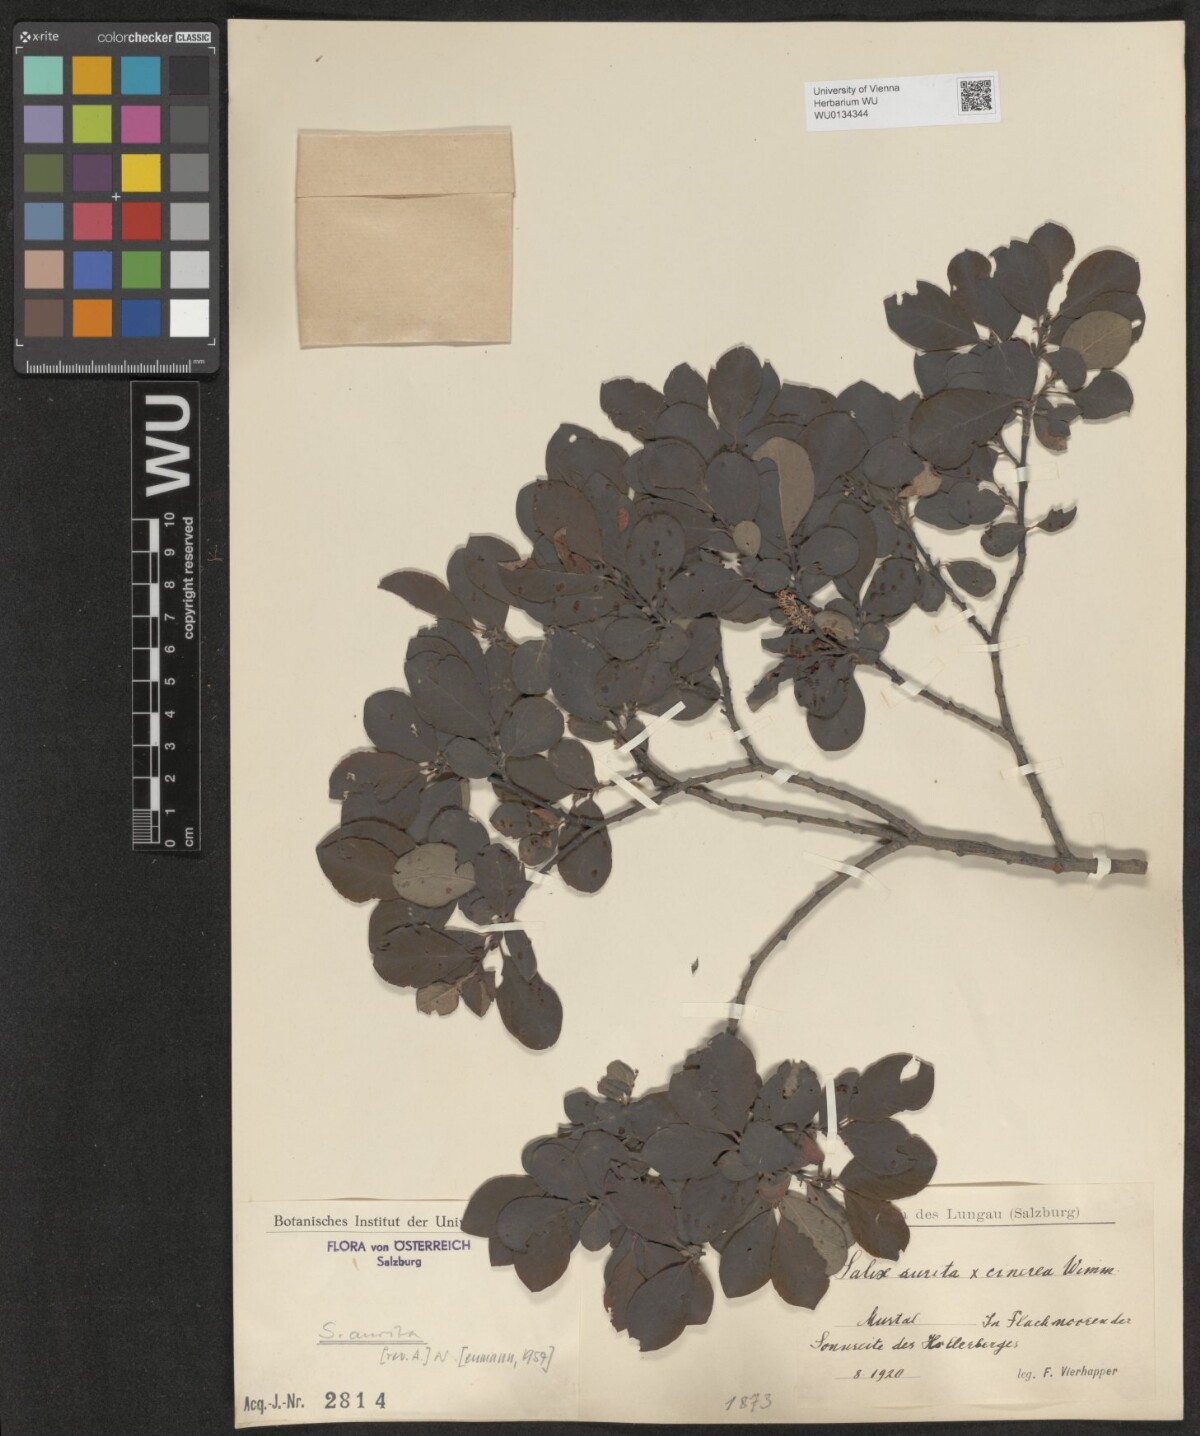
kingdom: Plantae
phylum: Tracheophyta
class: Magnoliopsida
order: Malpighiales
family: Salicaceae
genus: Salix
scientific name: Salix aurita
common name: Eared willow
